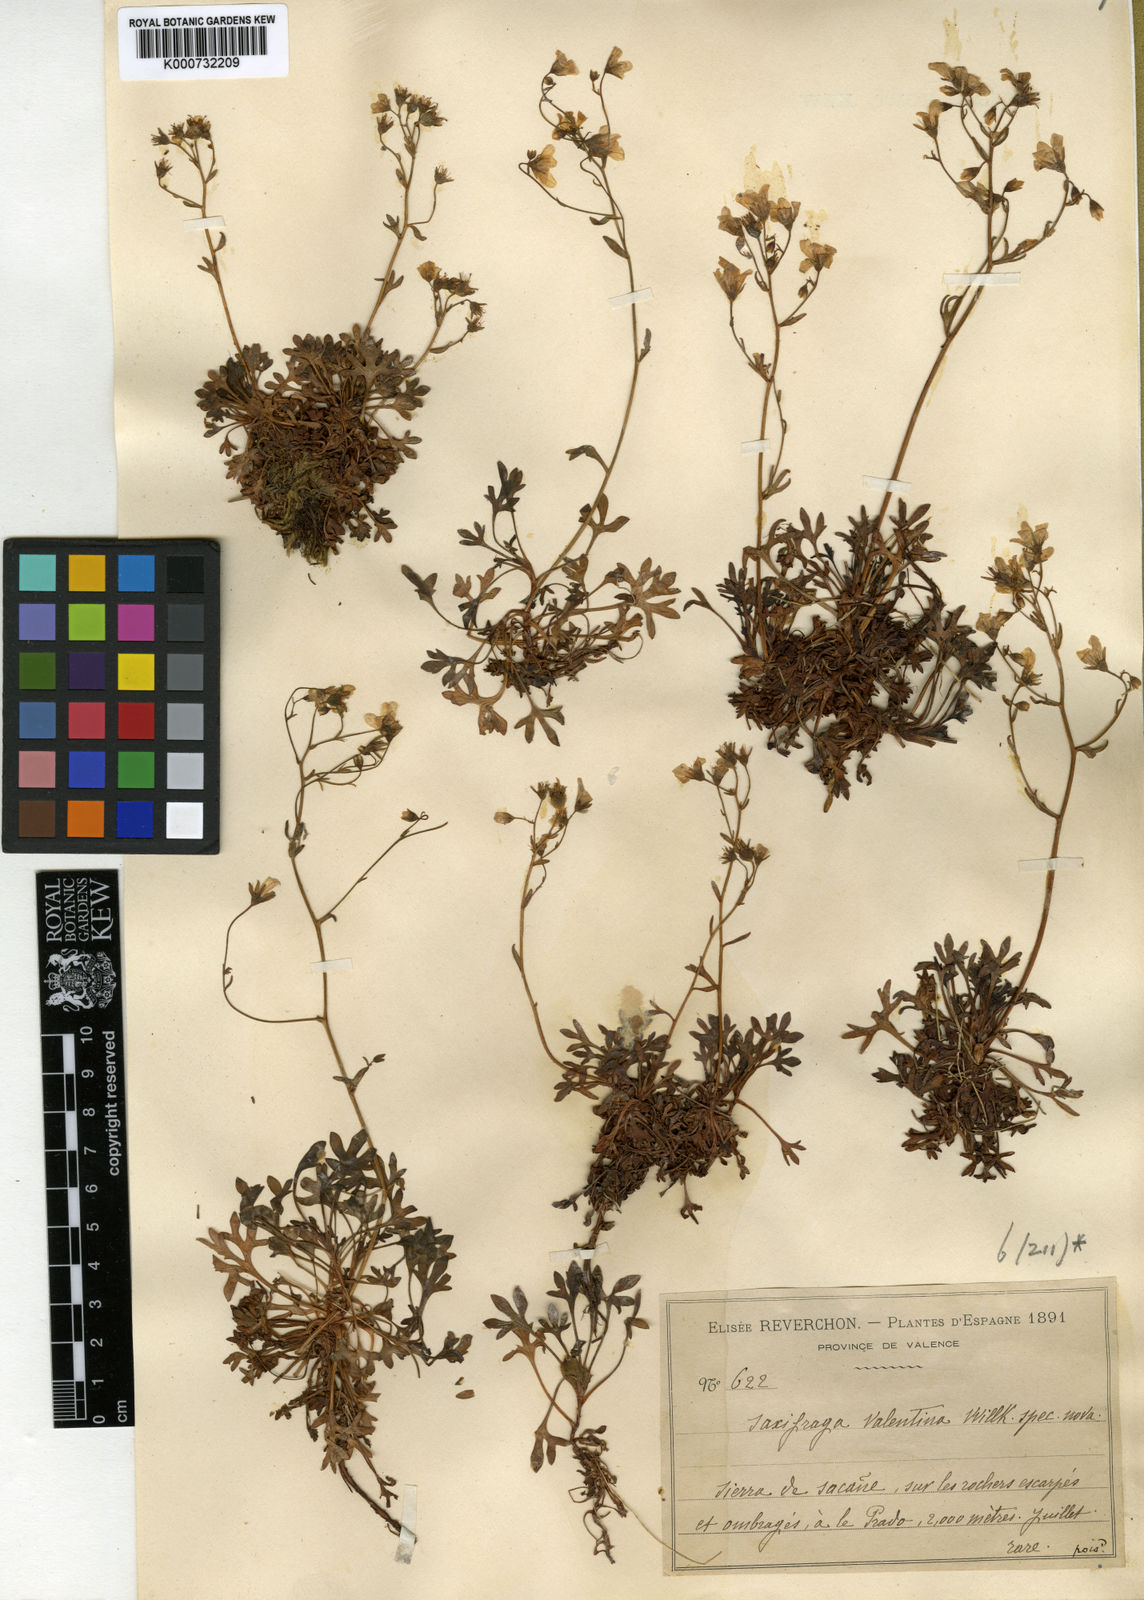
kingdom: Plantae
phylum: Tracheophyta
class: Magnoliopsida
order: Saxifragales
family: Saxifragaceae
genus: Saxifraga
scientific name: Saxifraga cuneata
